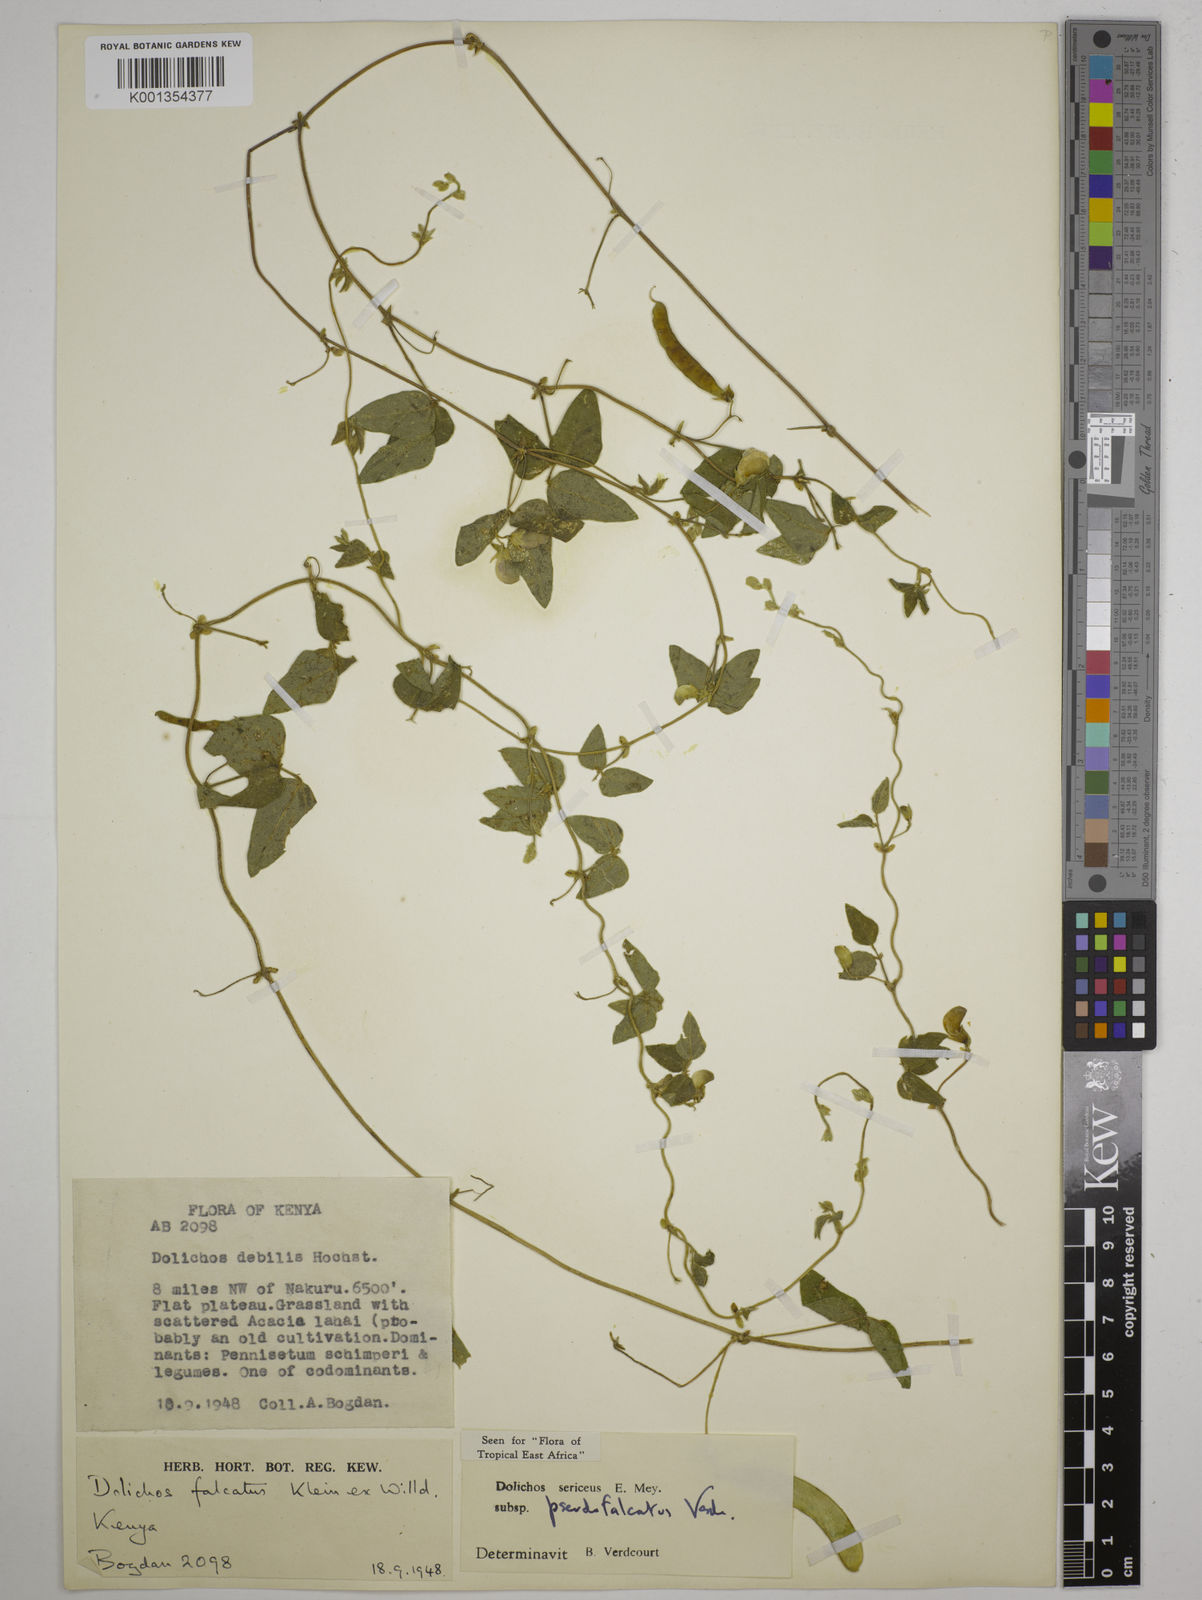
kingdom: Plantae
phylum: Tracheophyta
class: Magnoliopsida
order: Fabales
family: Fabaceae
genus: Dolichos
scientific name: Dolichos
